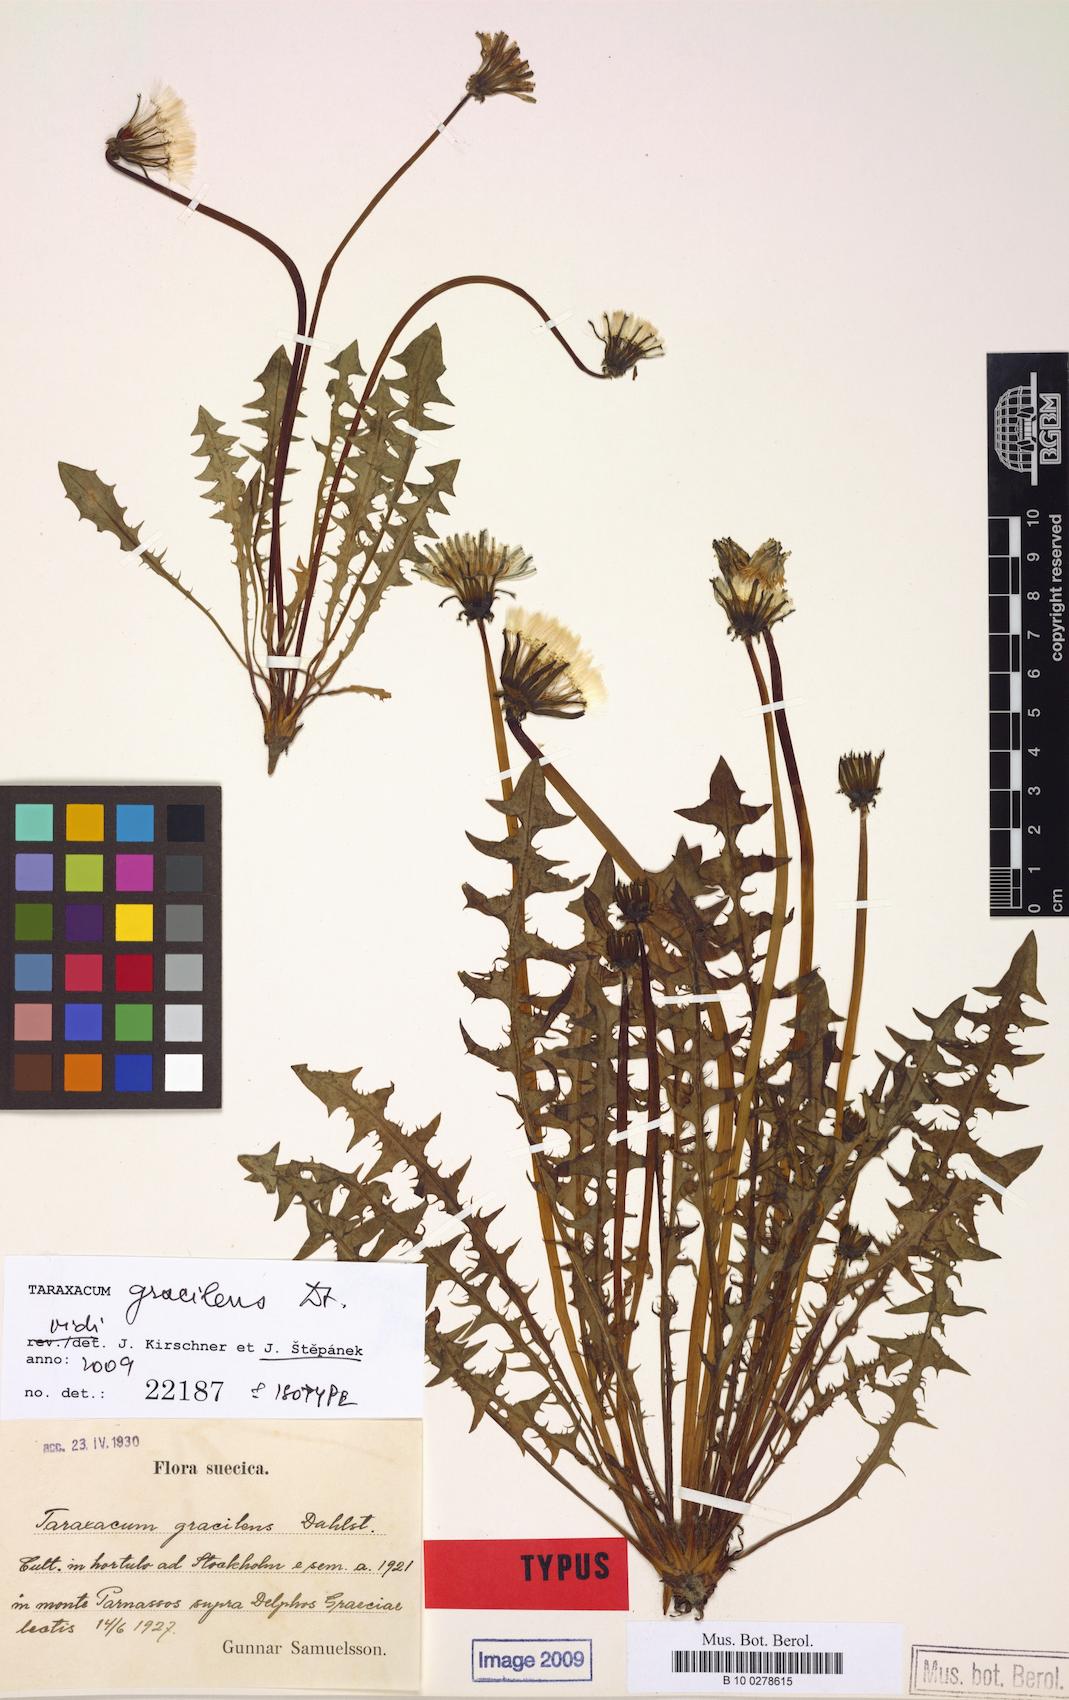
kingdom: Plantae
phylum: Tracheophyta
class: Magnoliopsida
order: Asterales
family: Asteraceae
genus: Taraxacum
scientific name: Taraxacum gracilens
